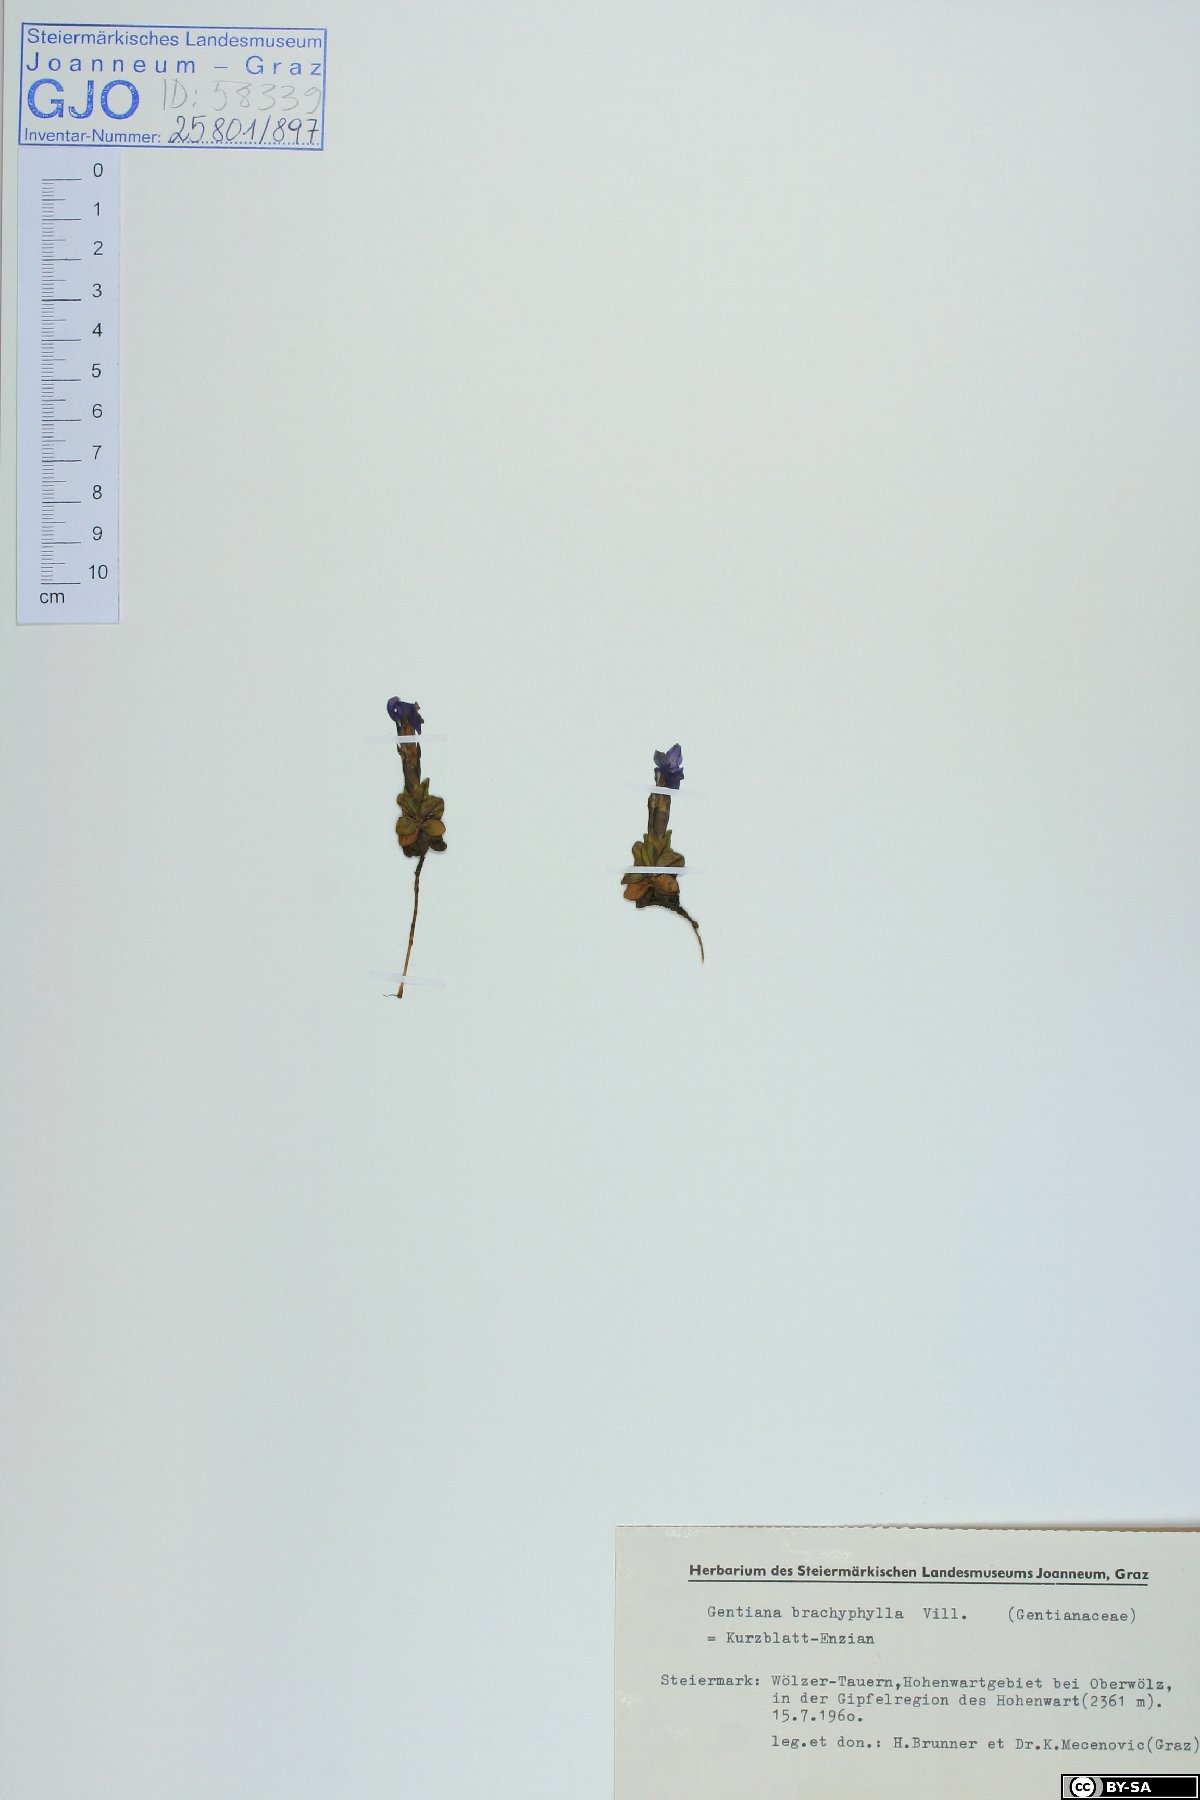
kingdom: Plantae
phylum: Tracheophyta
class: Magnoliopsida
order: Gentianales
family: Gentianaceae
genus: Gentiana
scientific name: Gentiana brachyphylla
